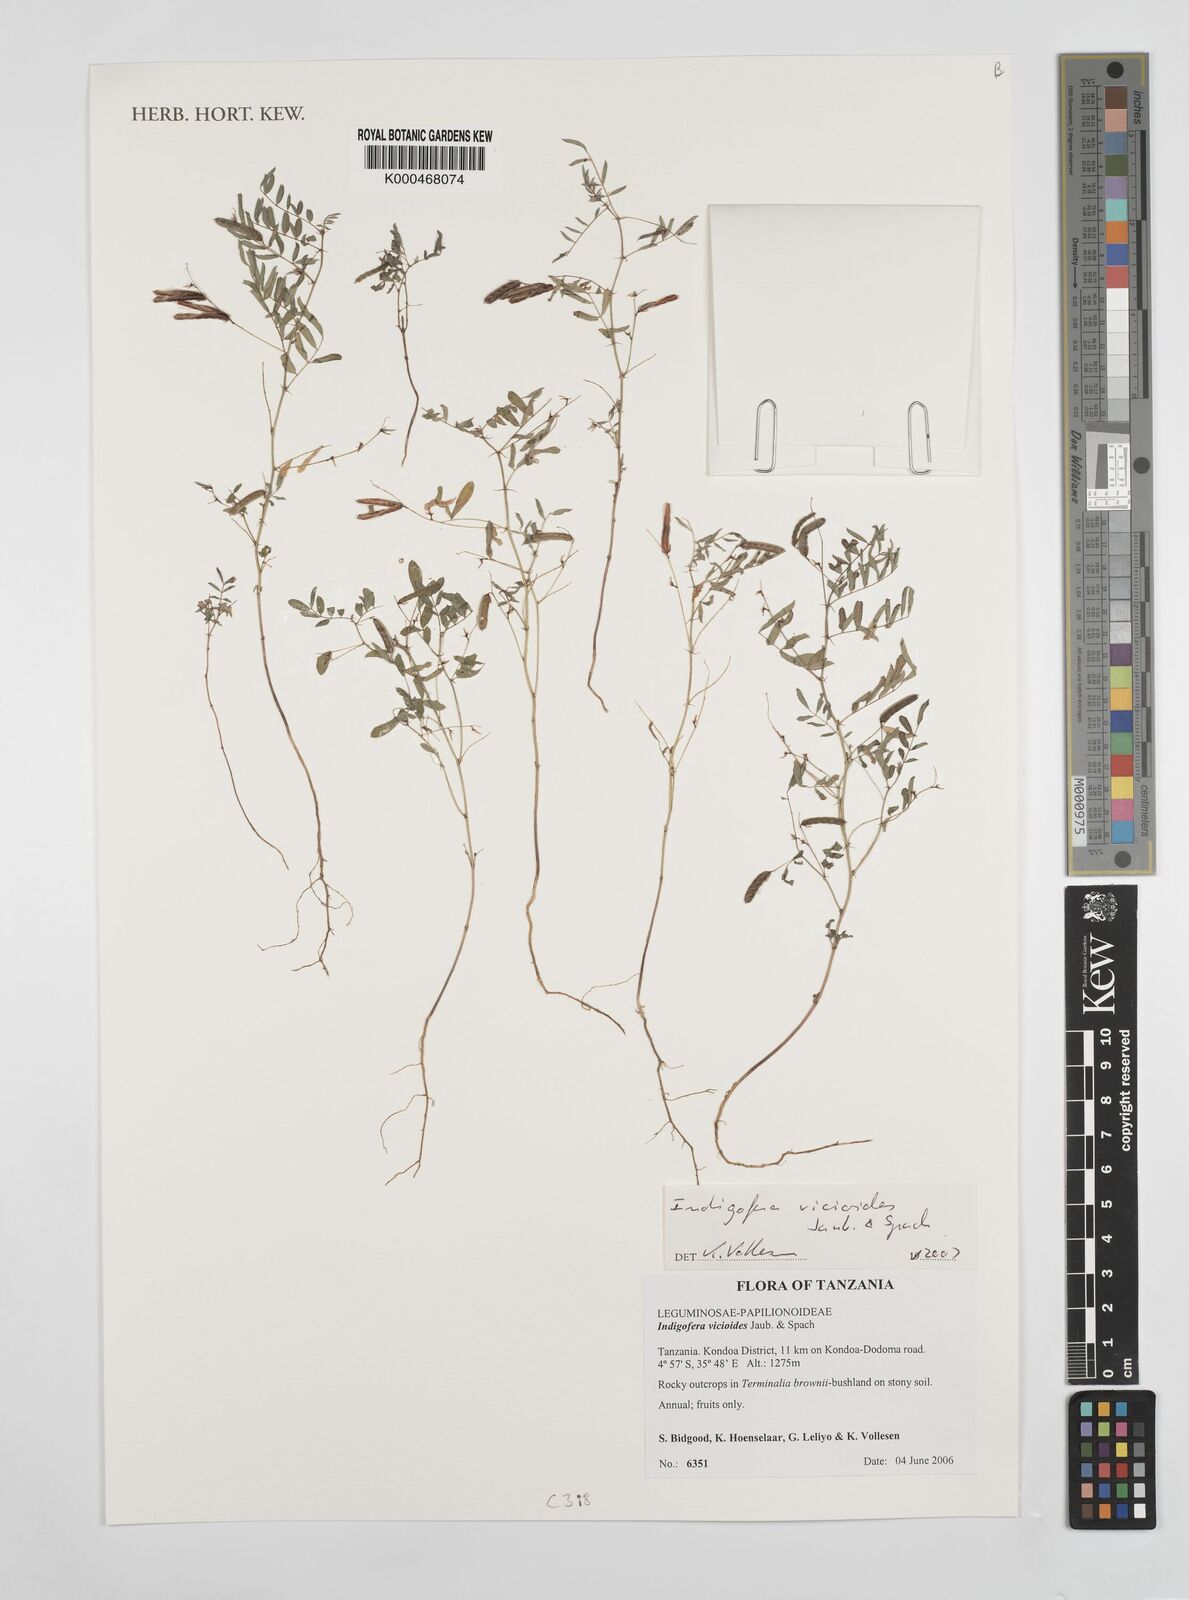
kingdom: Plantae
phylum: Tracheophyta
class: Magnoliopsida
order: Fabales
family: Fabaceae
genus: Indigofera
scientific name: Indigofera vicioides
